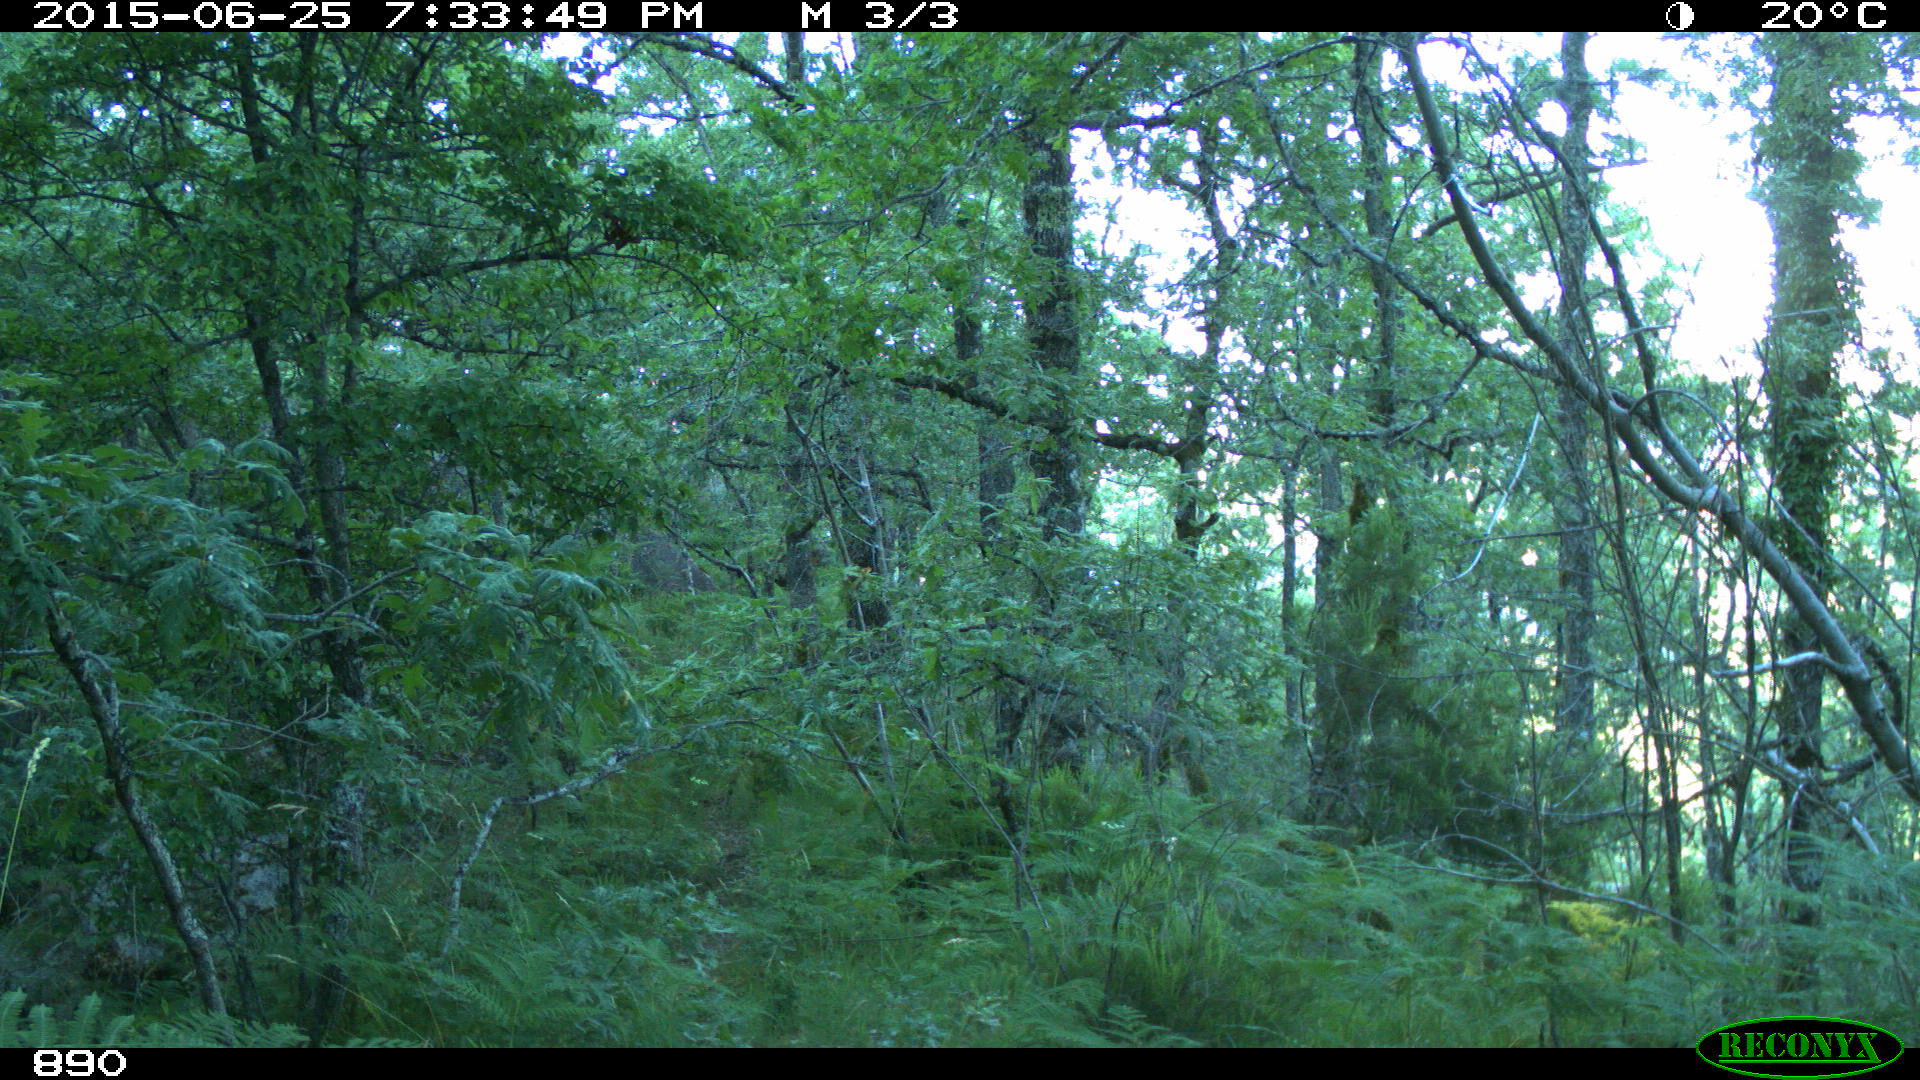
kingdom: Animalia
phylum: Chordata
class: Mammalia
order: Artiodactyla
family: Cervidae
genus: Capreolus
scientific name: Capreolus capreolus
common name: Western roe deer
